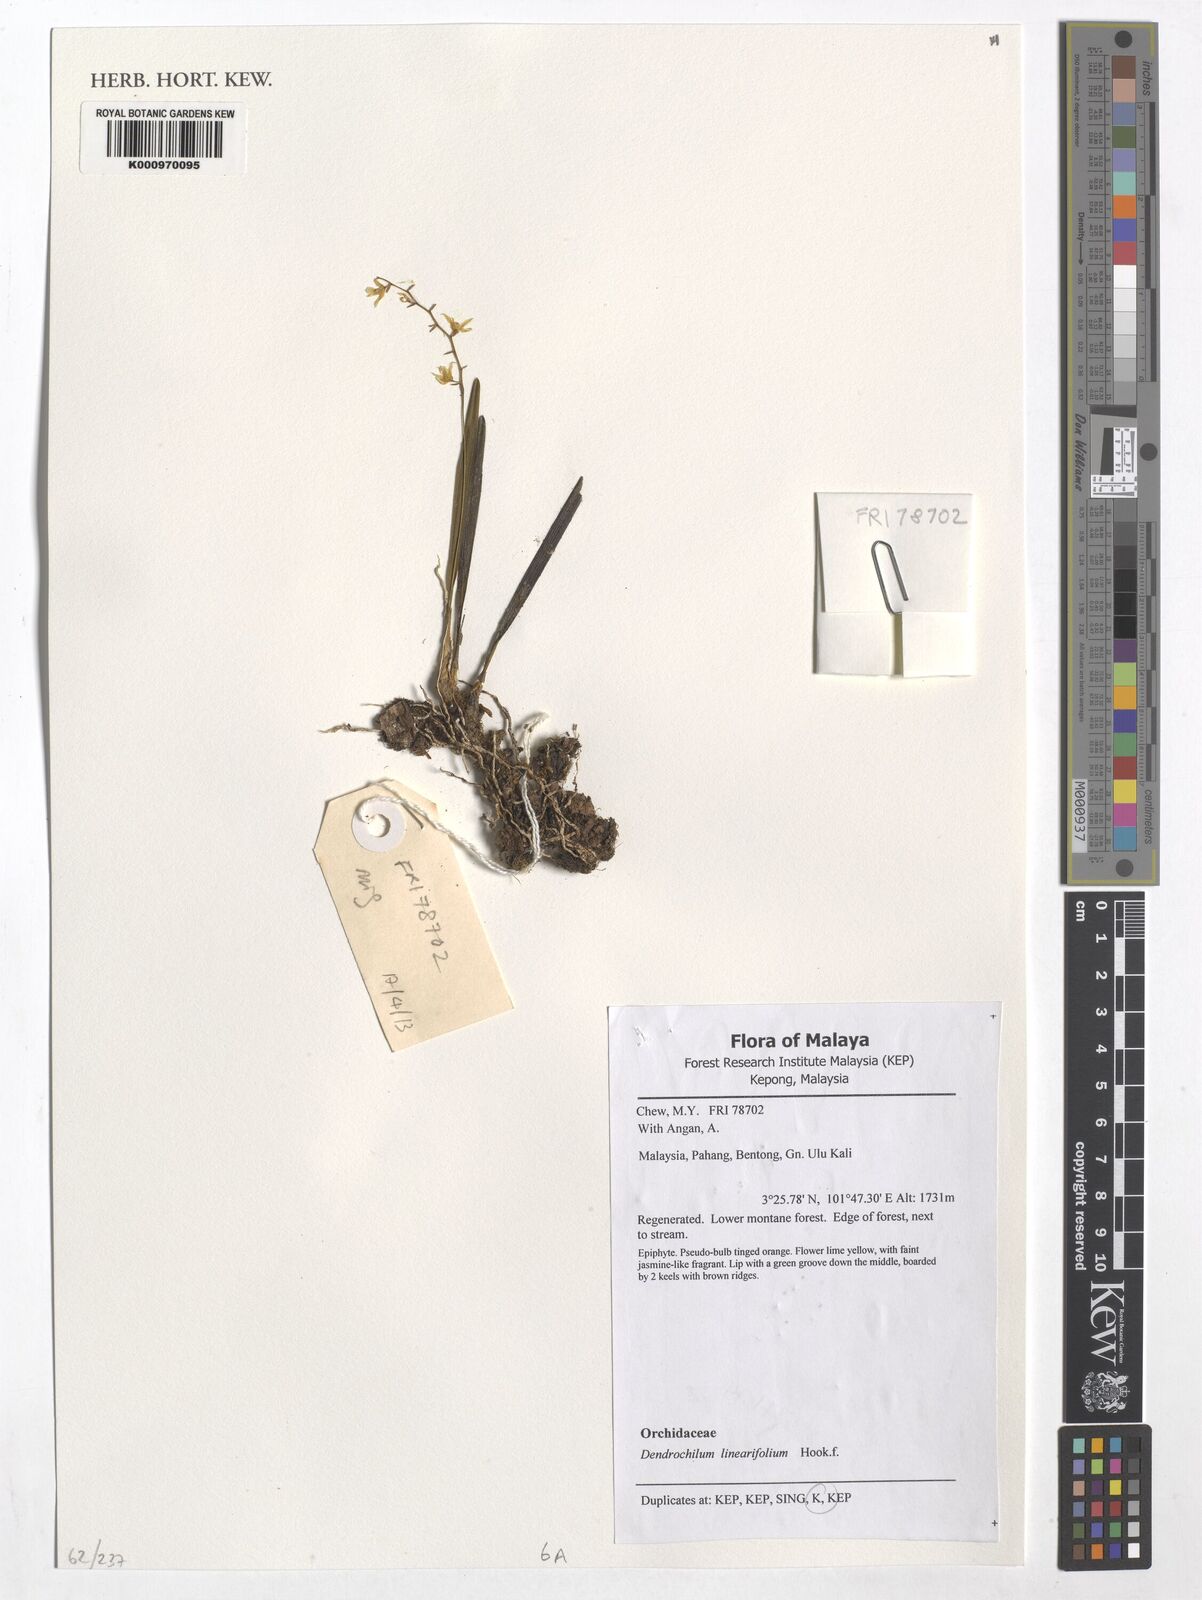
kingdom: Plantae
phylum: Tracheophyta
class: Liliopsida
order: Asparagales
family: Orchidaceae
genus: Coelogyne
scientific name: Coelogyne linearifolia
